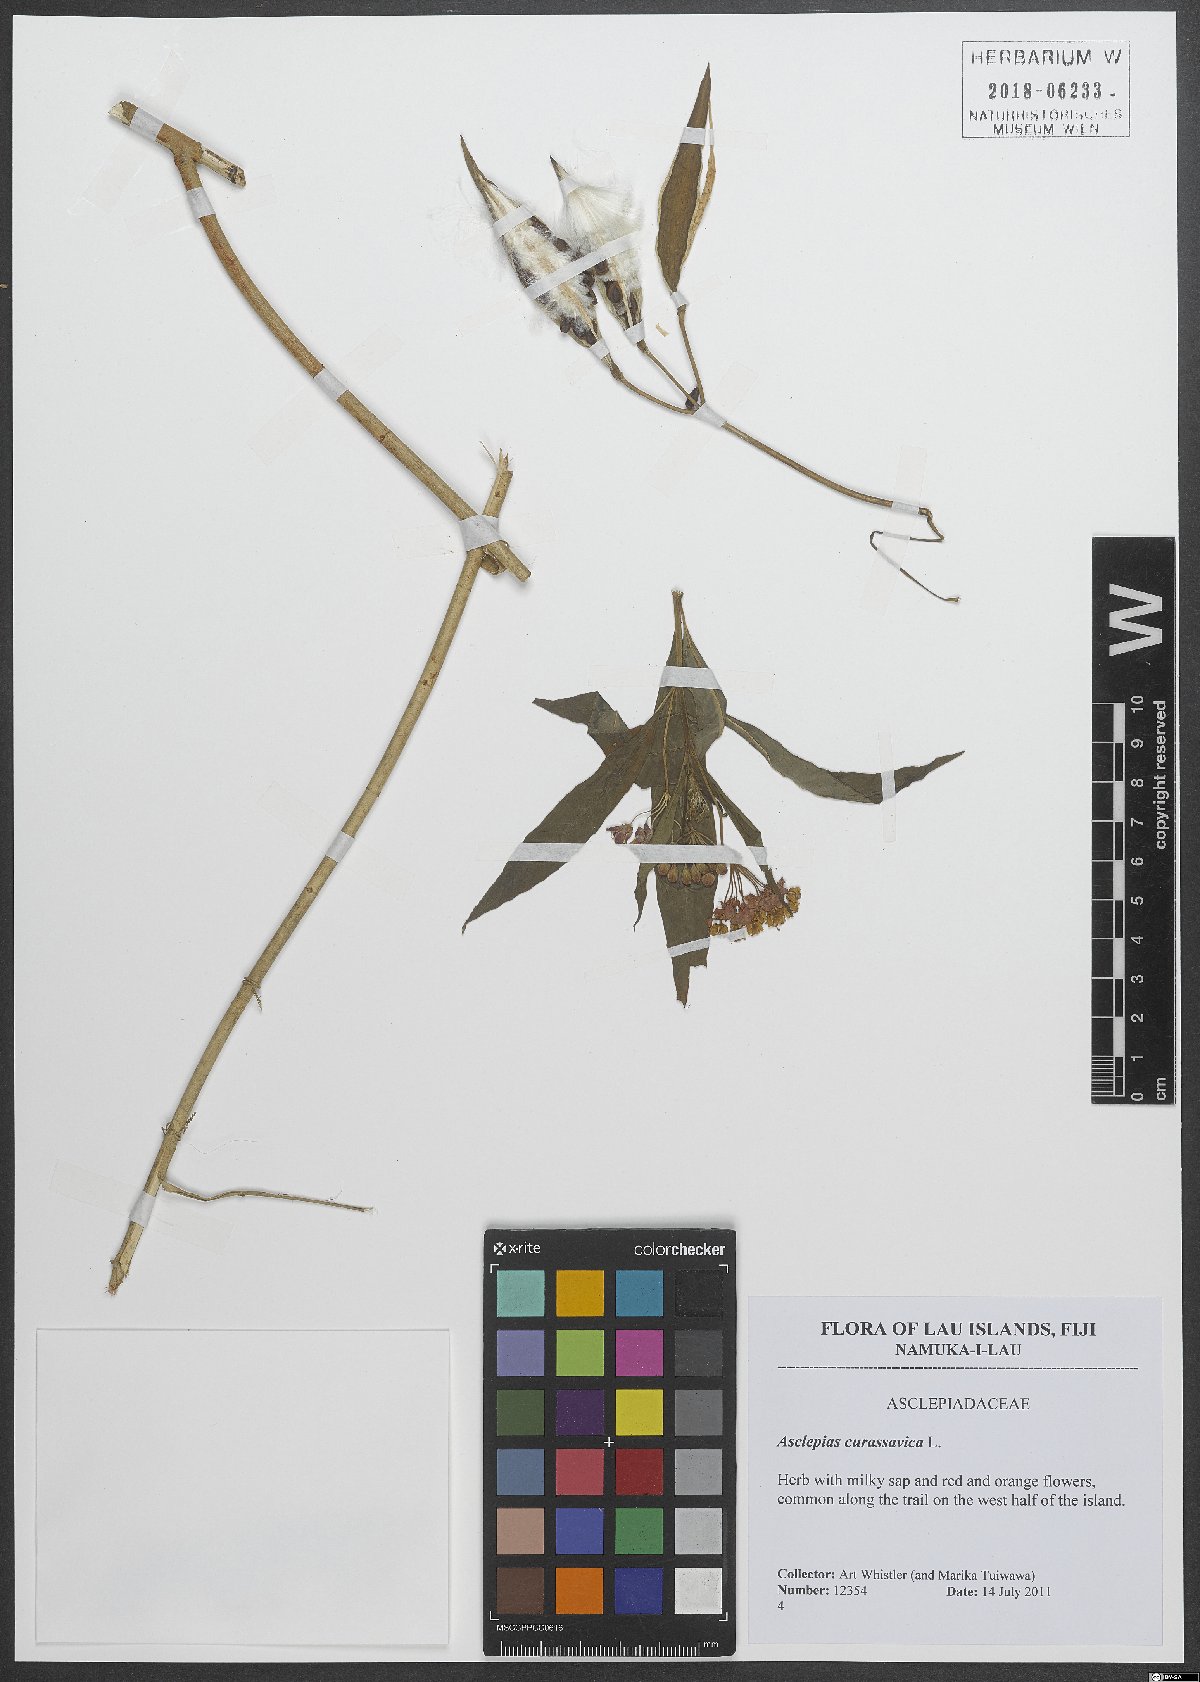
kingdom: Plantae
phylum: Tracheophyta
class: Magnoliopsida
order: Gentianales
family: Apocynaceae
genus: Asclepias
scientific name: Asclepias curassavica
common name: Bloodflower
